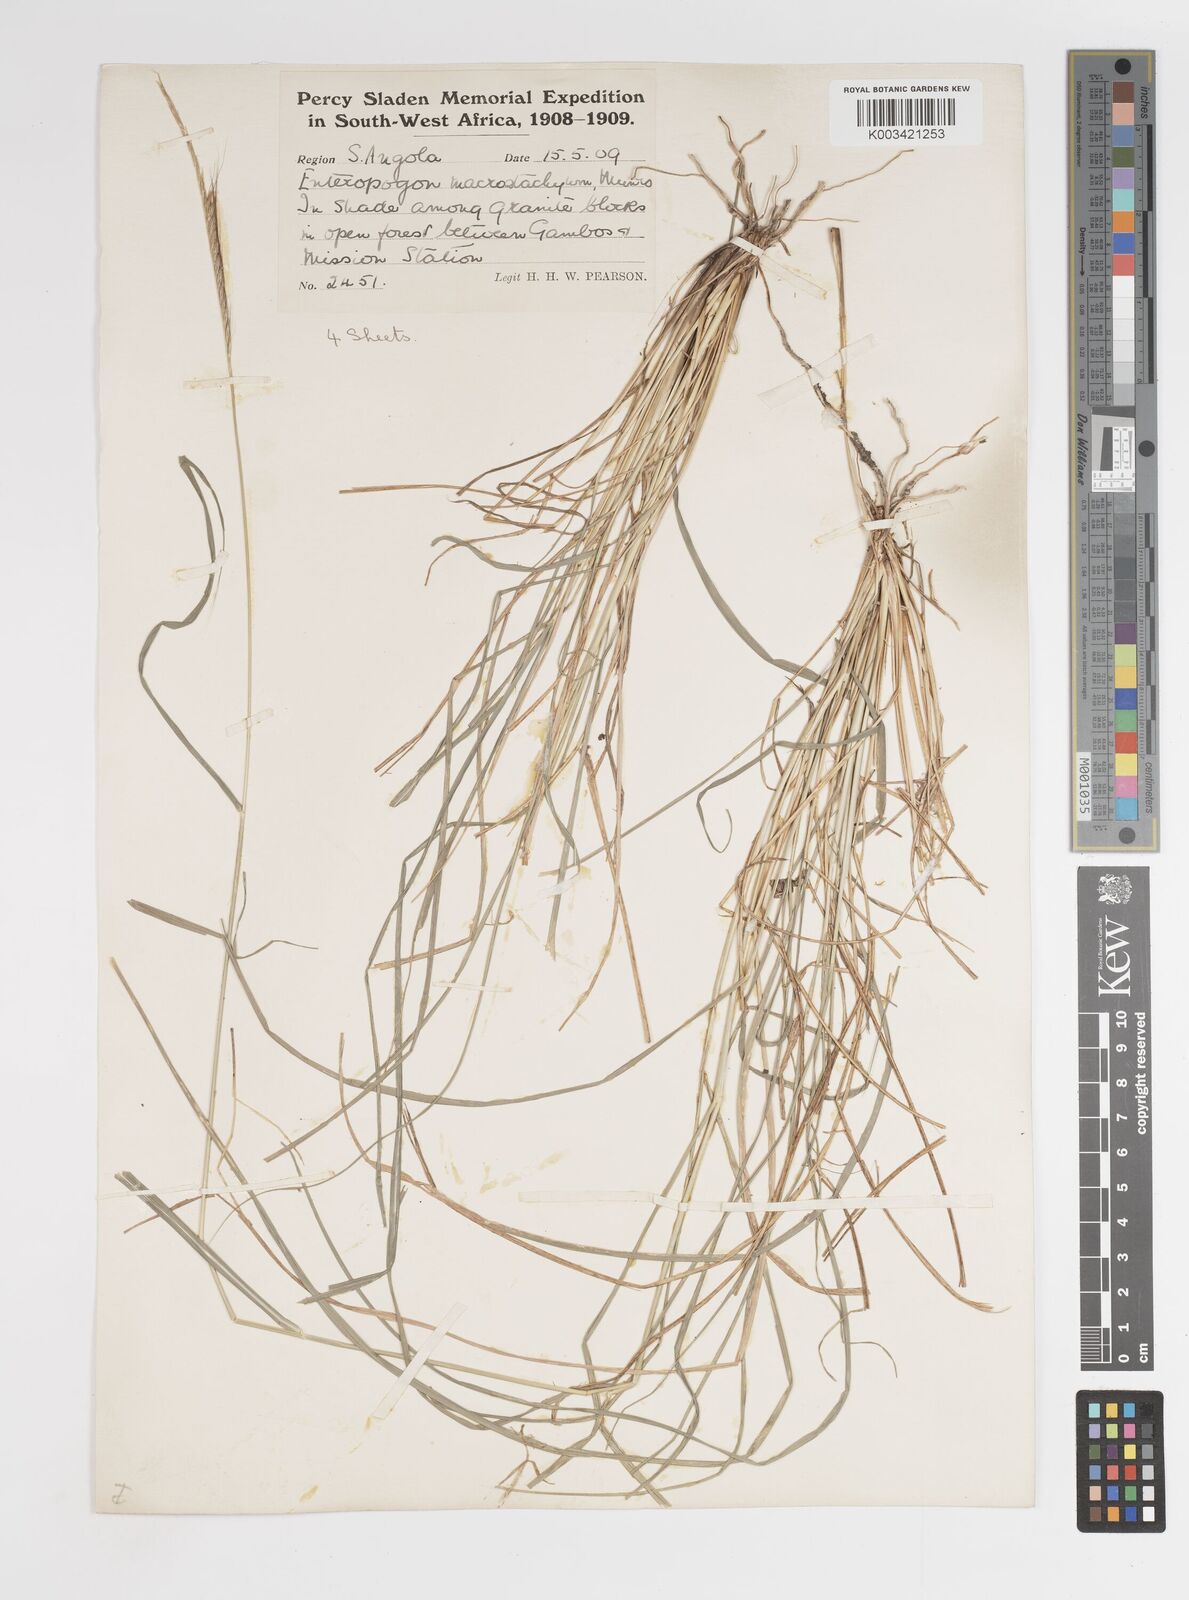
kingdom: Plantae
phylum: Tracheophyta
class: Liliopsida
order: Poales
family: Poaceae
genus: Enteropogon
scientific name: Enteropogon macrostachyus
